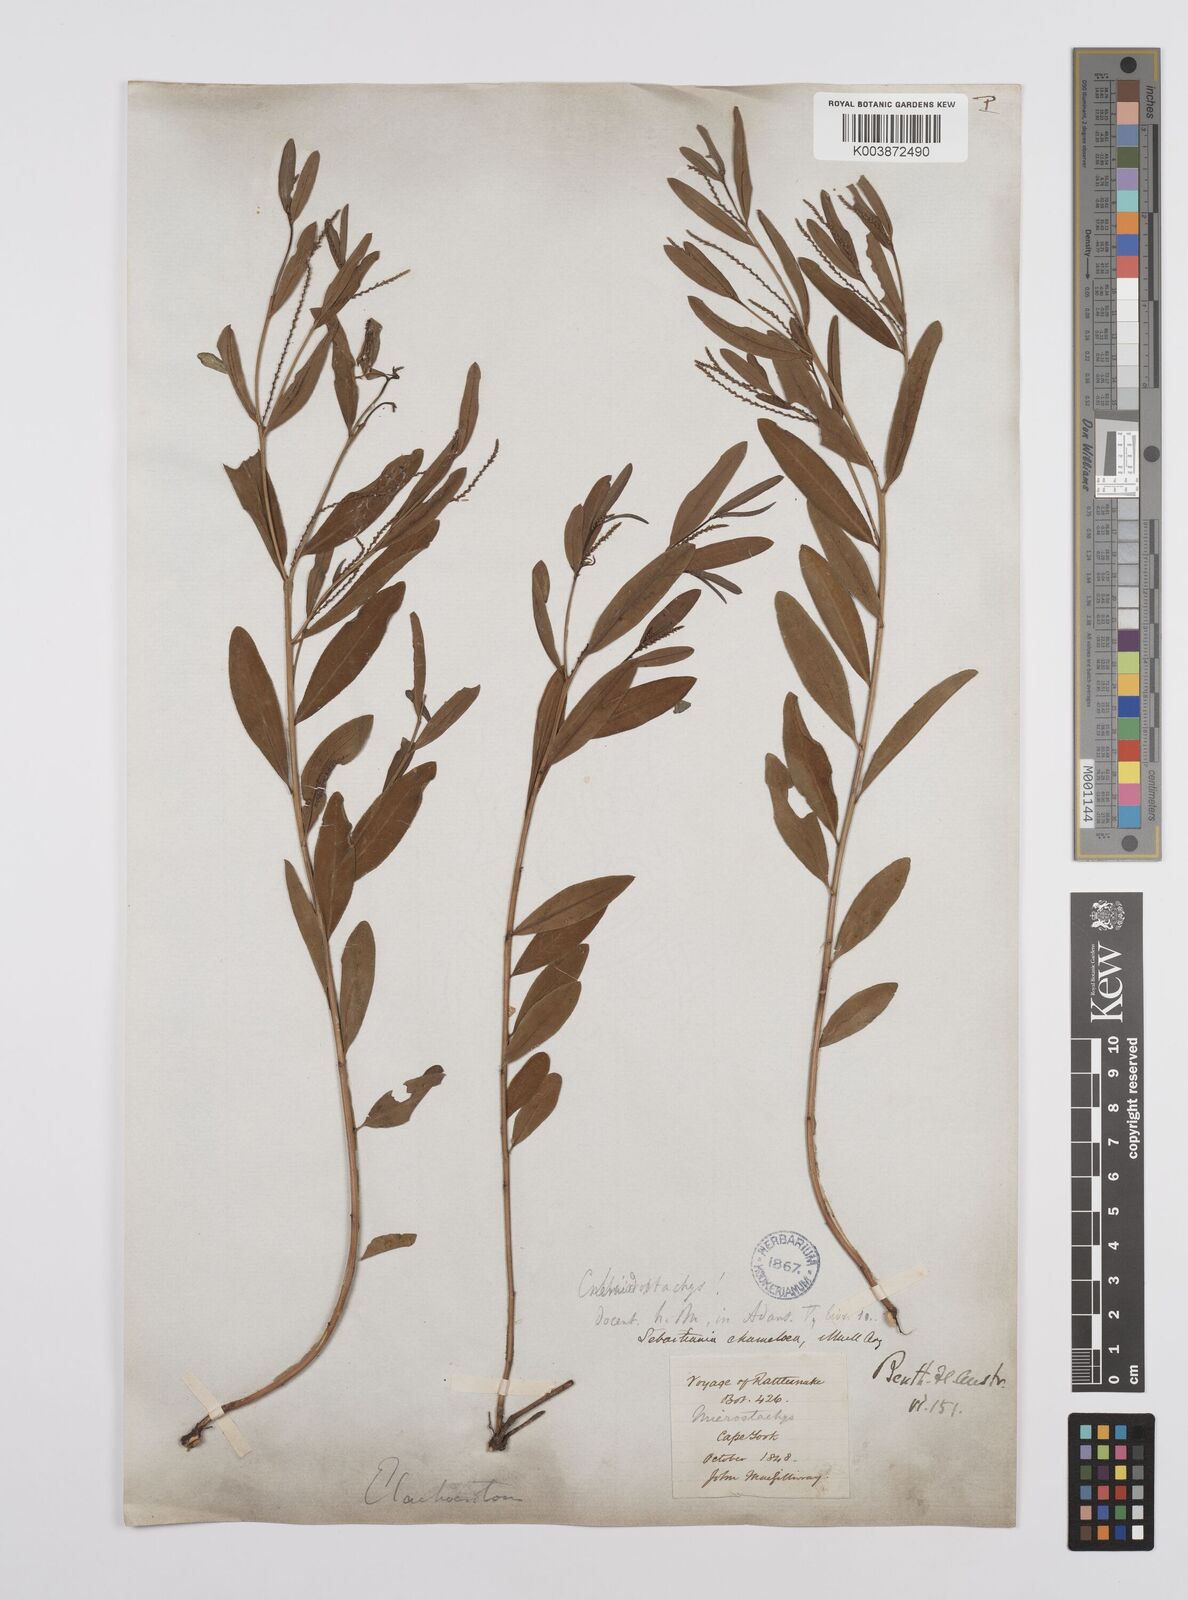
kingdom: Plantae
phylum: Tracheophyta
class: Magnoliopsida
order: Malpighiales
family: Euphorbiaceae
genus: Microstachys
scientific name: Microstachys chamaelea
